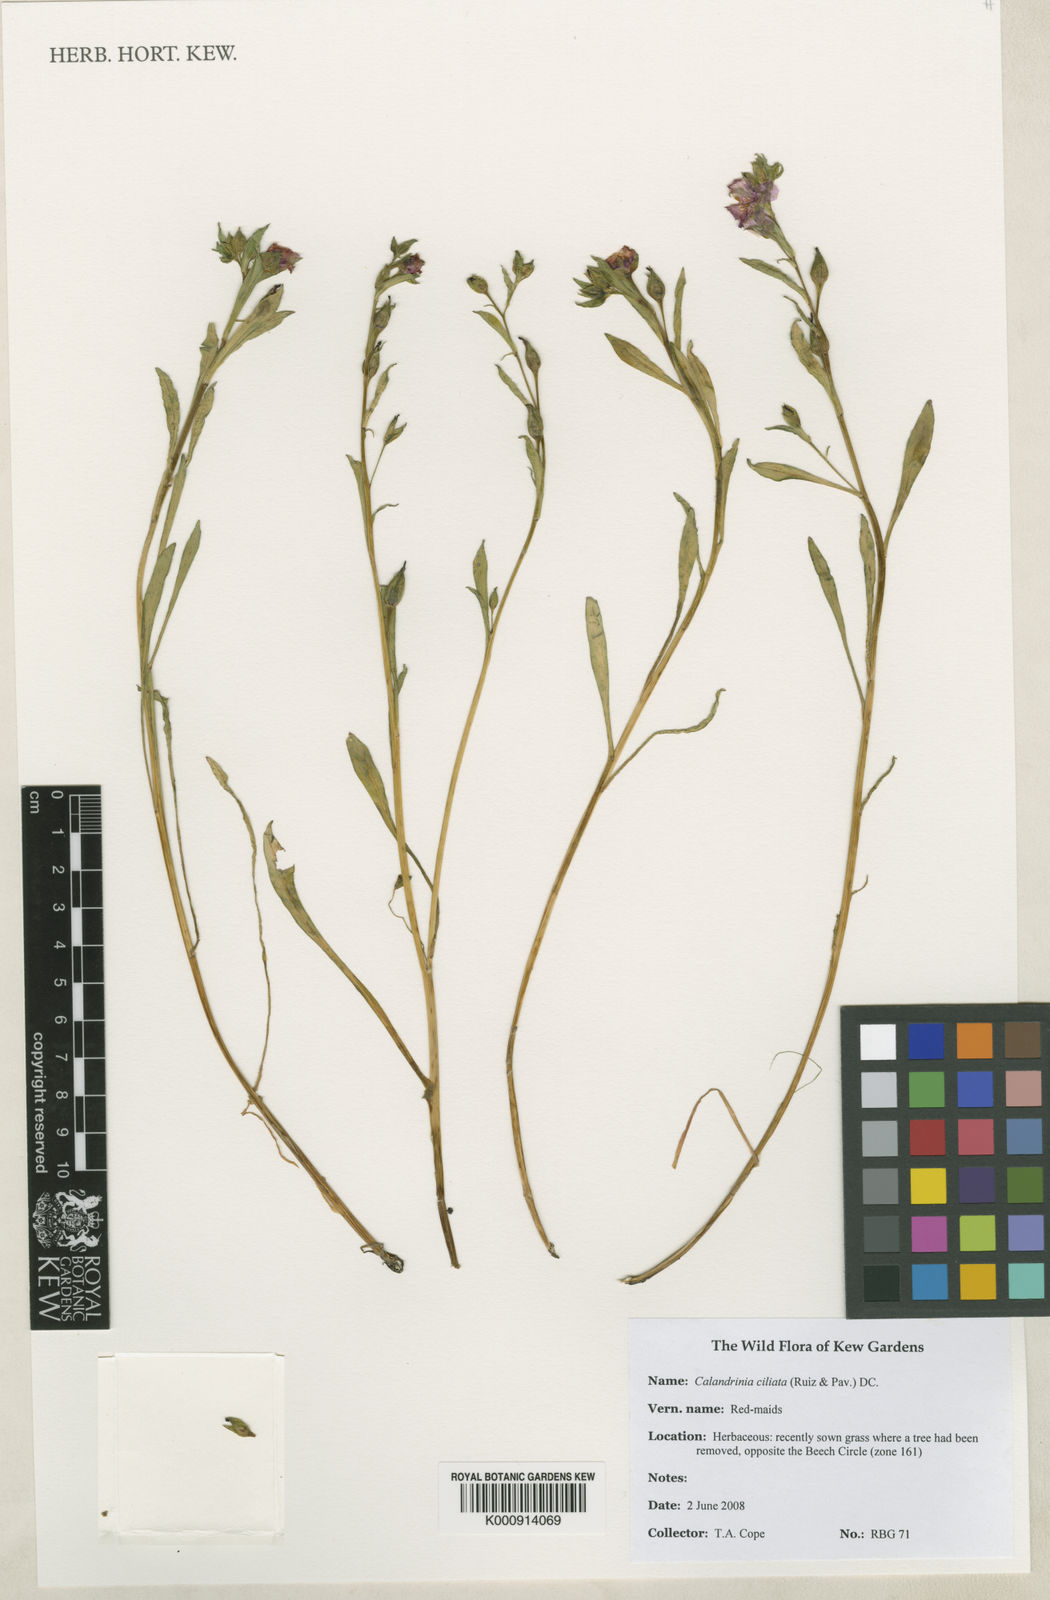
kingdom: Plantae
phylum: Tracheophyta
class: Magnoliopsida
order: Caryophyllales
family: Montiaceae
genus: Calandrinia
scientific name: Calandrinia ciliata
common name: Red-maids
